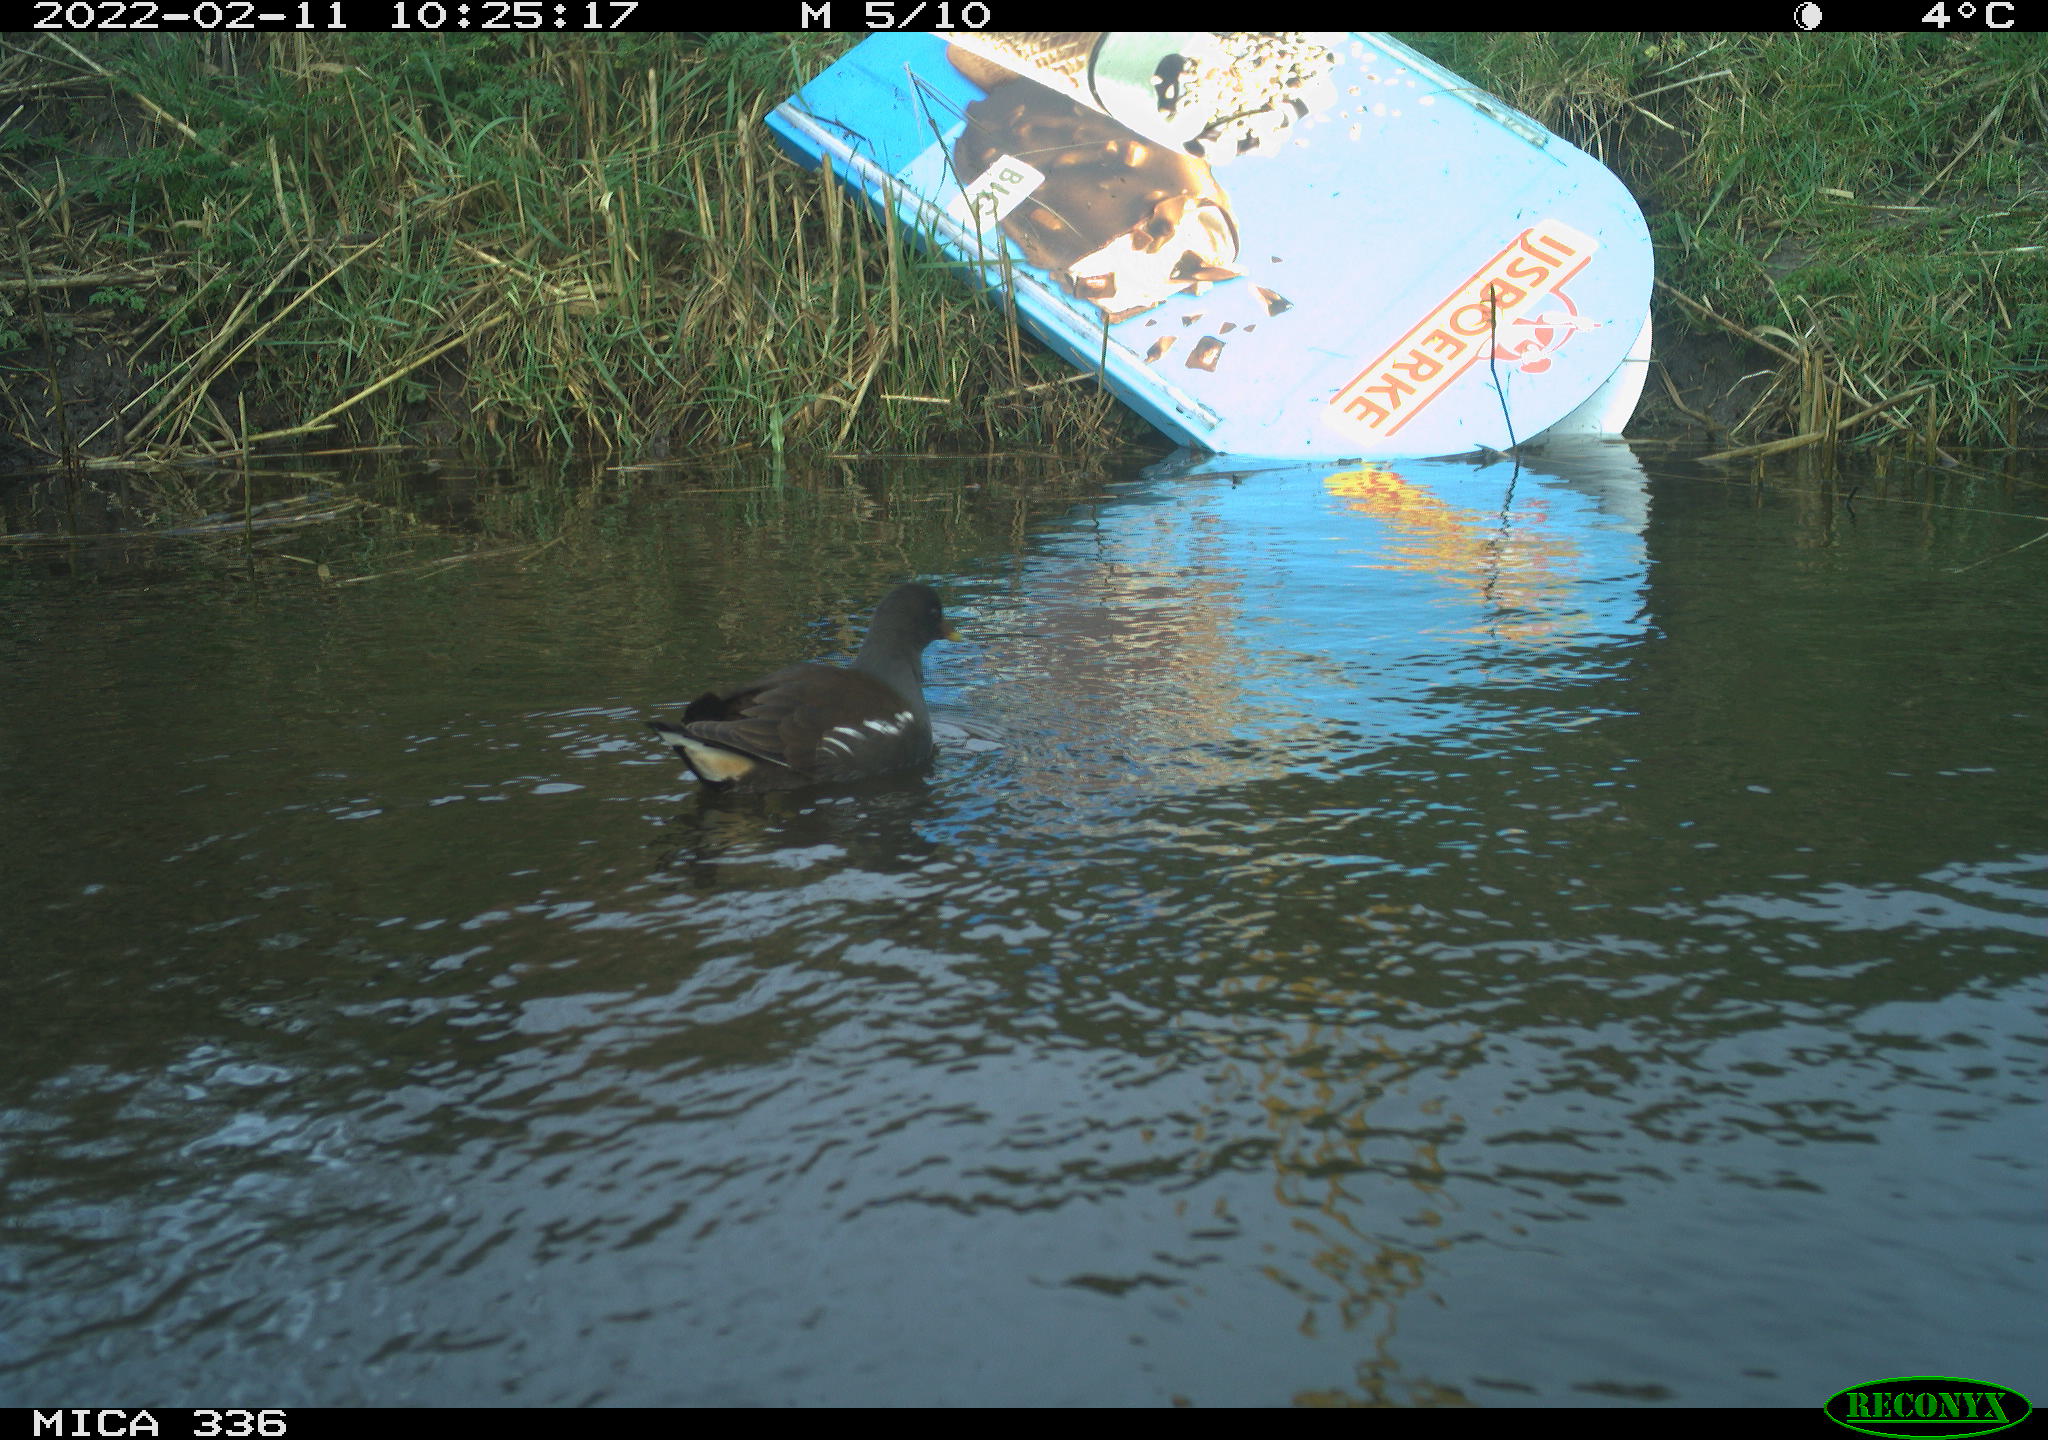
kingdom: Animalia
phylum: Chordata
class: Aves
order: Gruiformes
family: Rallidae
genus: Gallinula
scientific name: Gallinula chloropus
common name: Common moorhen
